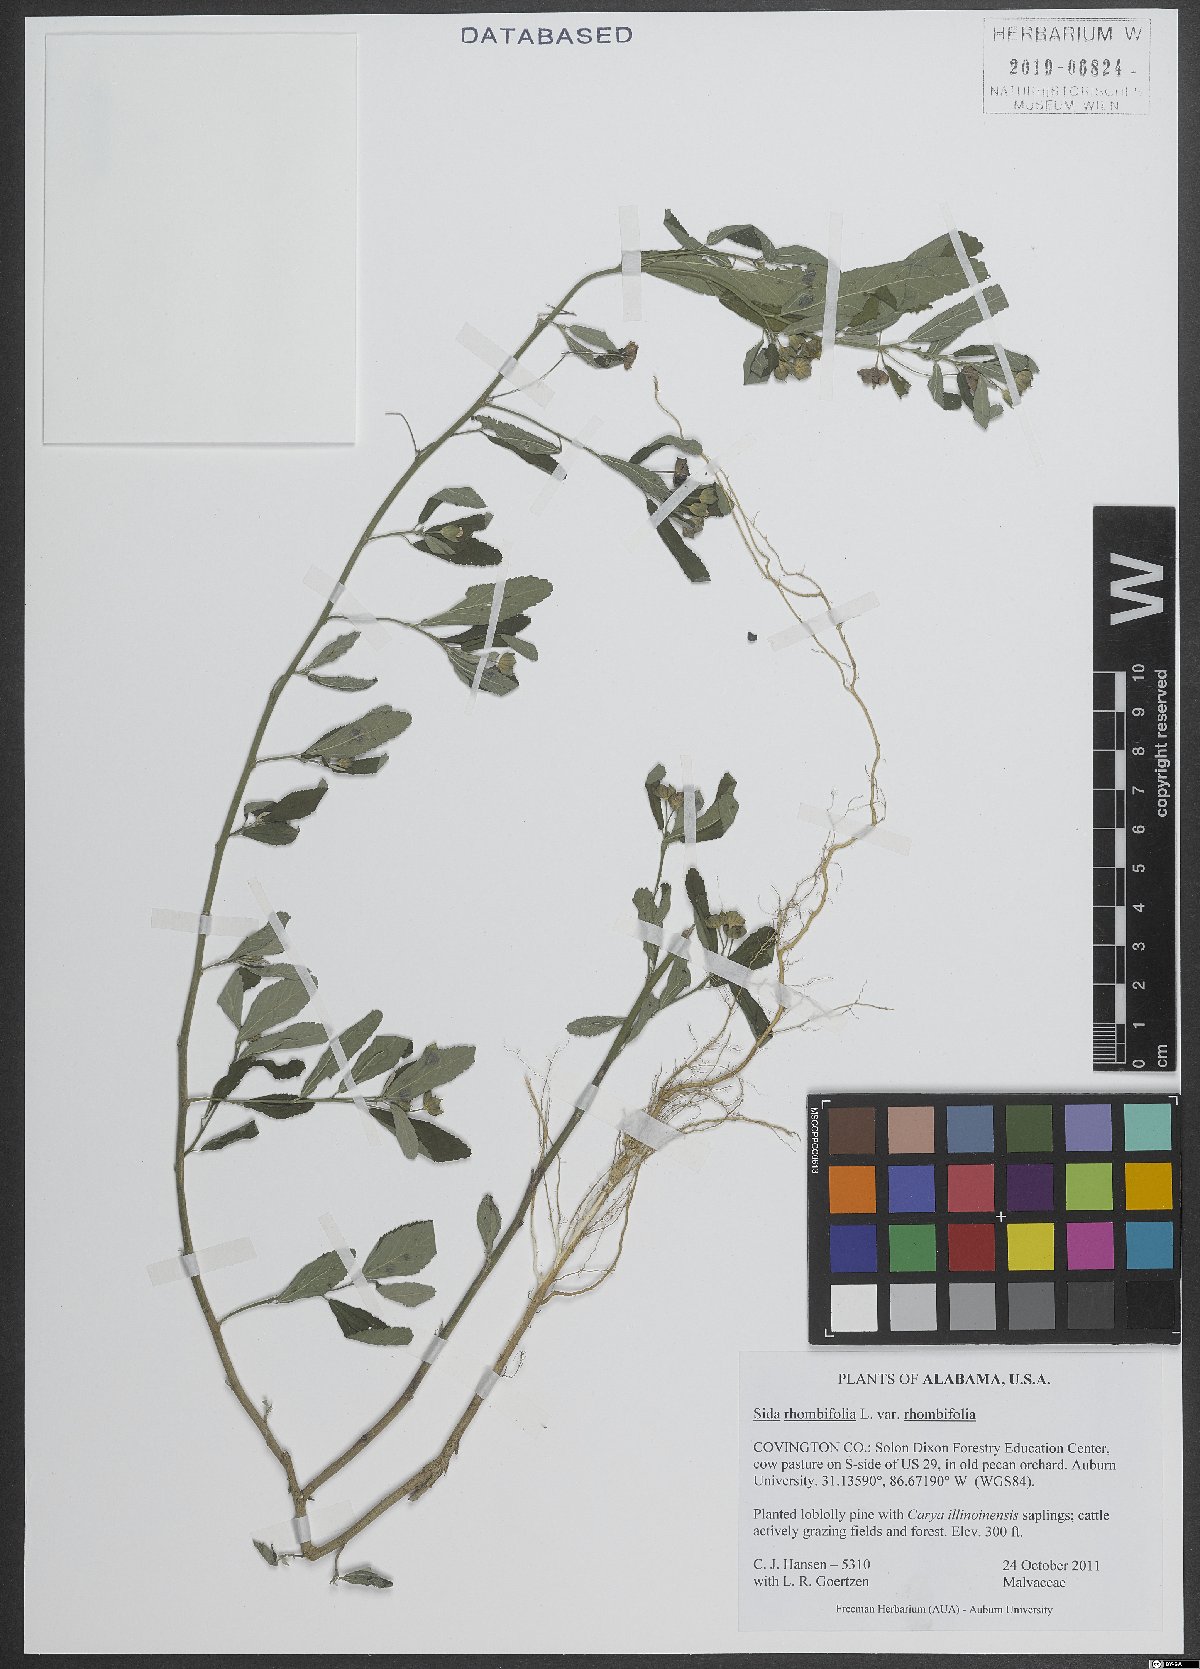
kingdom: Plantae
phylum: Tracheophyta
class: Magnoliopsida
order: Malvales
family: Malvaceae
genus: Sida
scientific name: Sida rhombifolia
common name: Queensland-hemp
